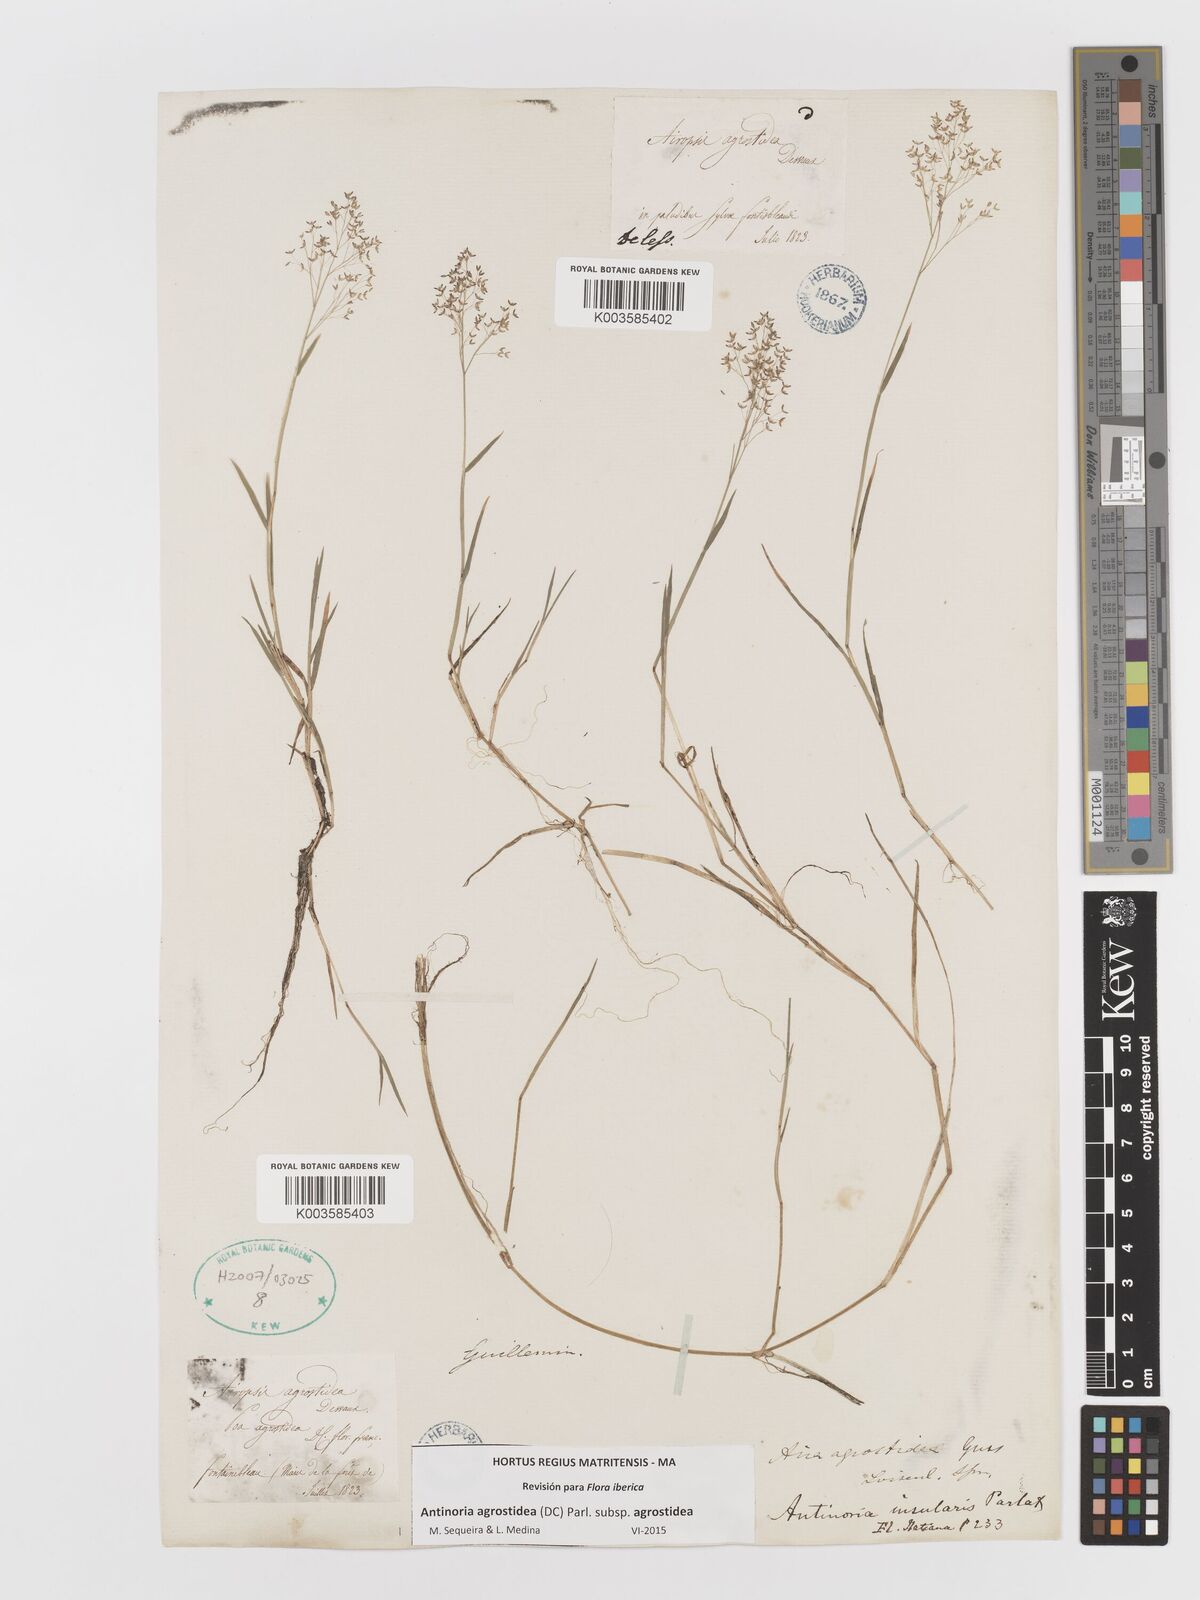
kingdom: Plantae
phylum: Tracheophyta
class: Liliopsida
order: Poales
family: Poaceae
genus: Antinoria
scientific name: Antinoria agrostidea
